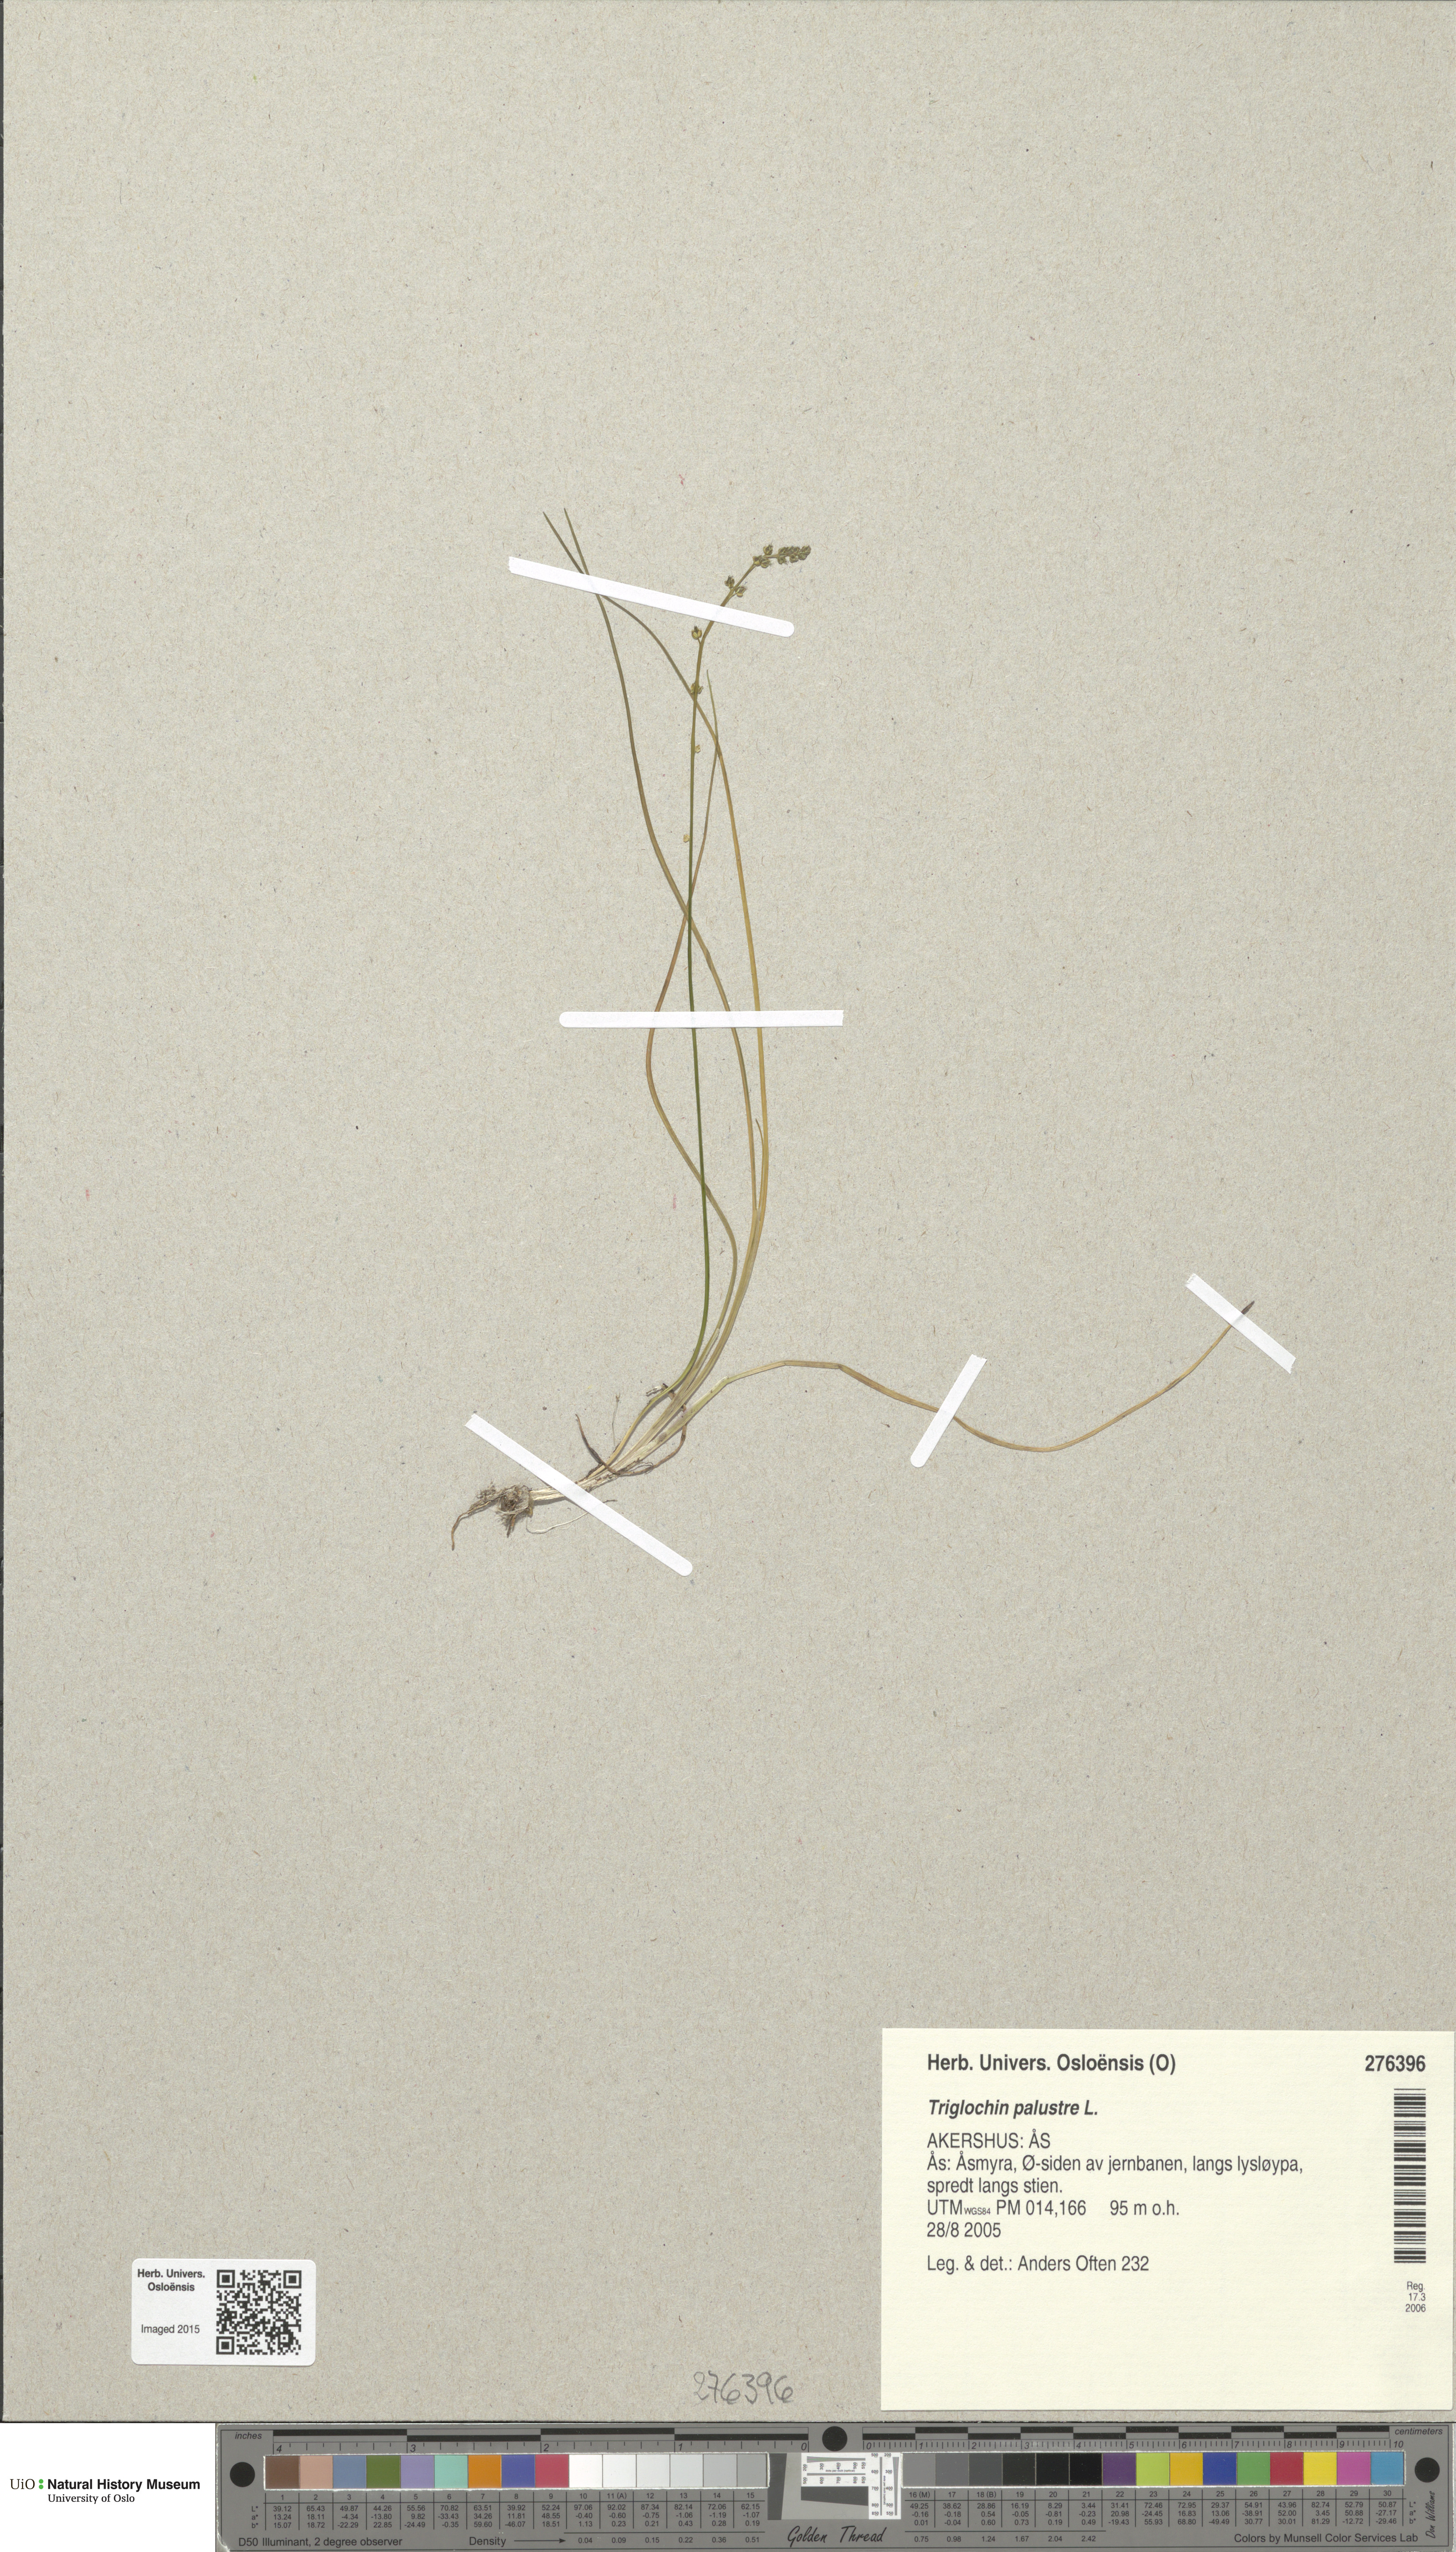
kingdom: Plantae
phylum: Tracheophyta
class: Liliopsida
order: Alismatales
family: Juncaginaceae
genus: Triglochin
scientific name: Triglochin palustris
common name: Marsh arrowgrass
